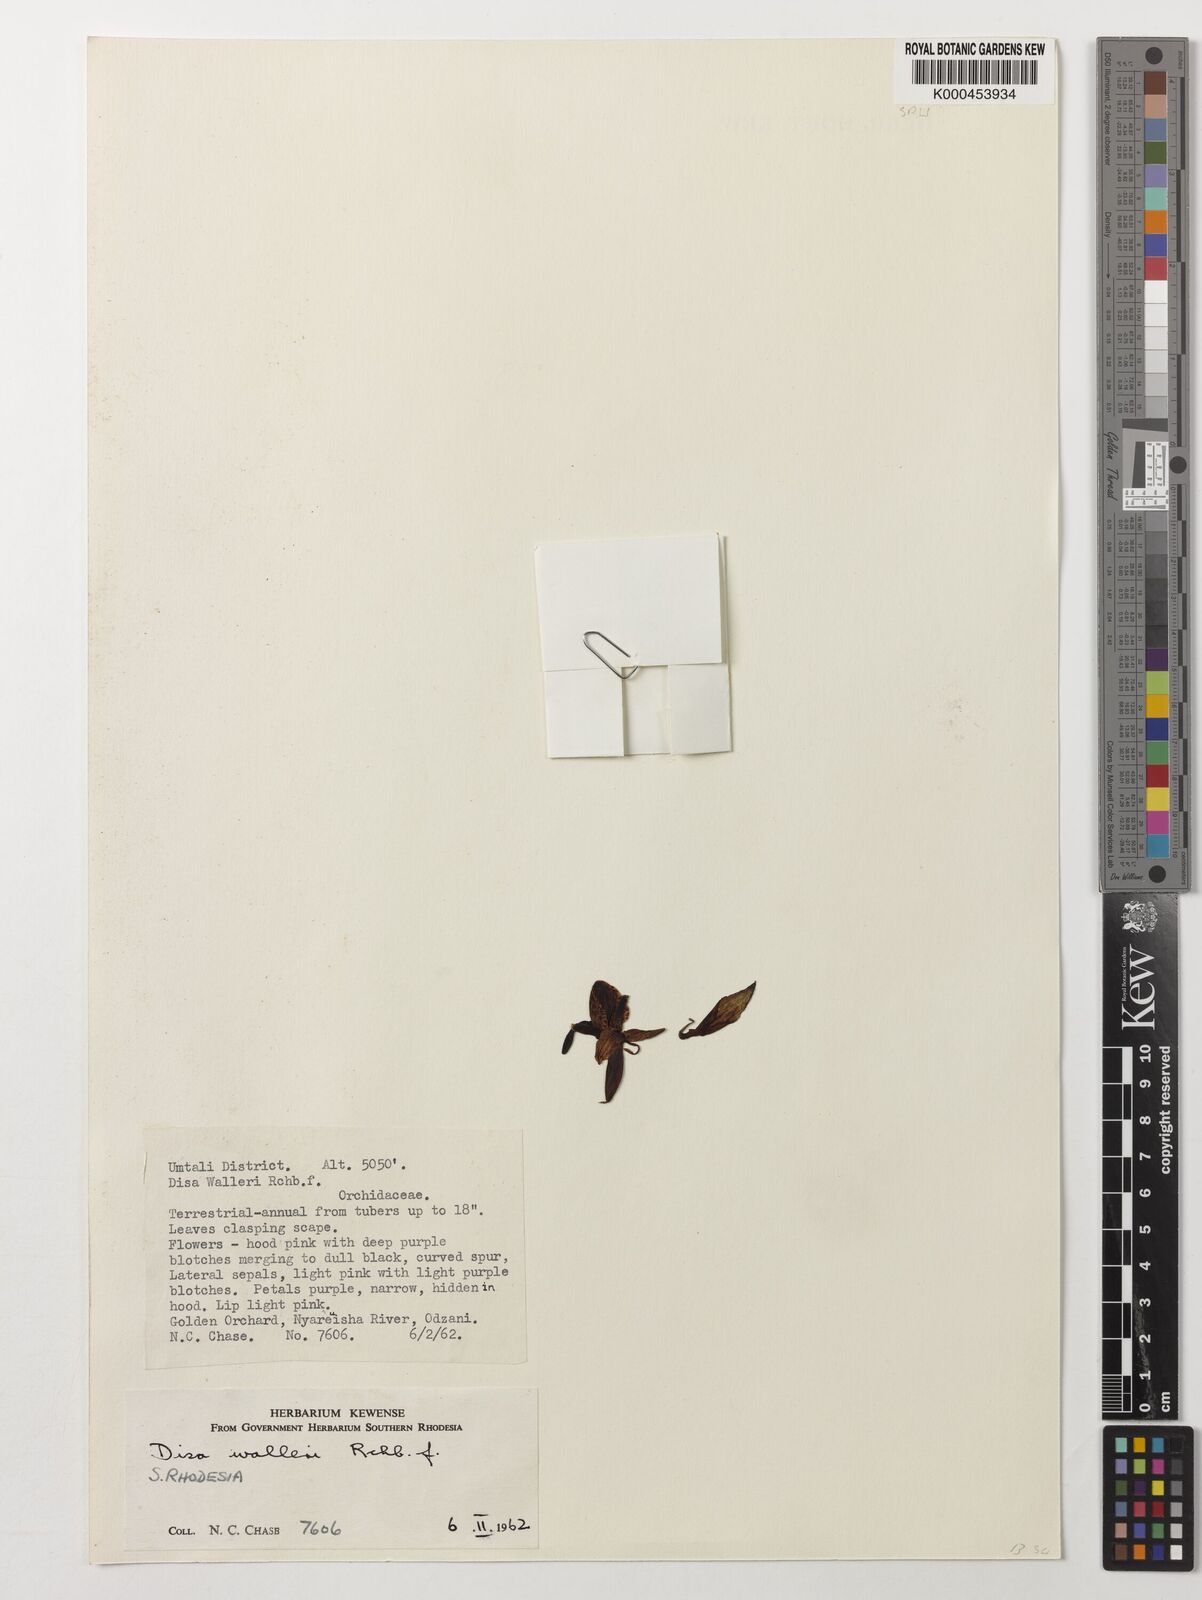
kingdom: Plantae
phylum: Tracheophyta
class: Liliopsida
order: Asparagales
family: Orchidaceae
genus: Disa
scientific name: Disa walleri
